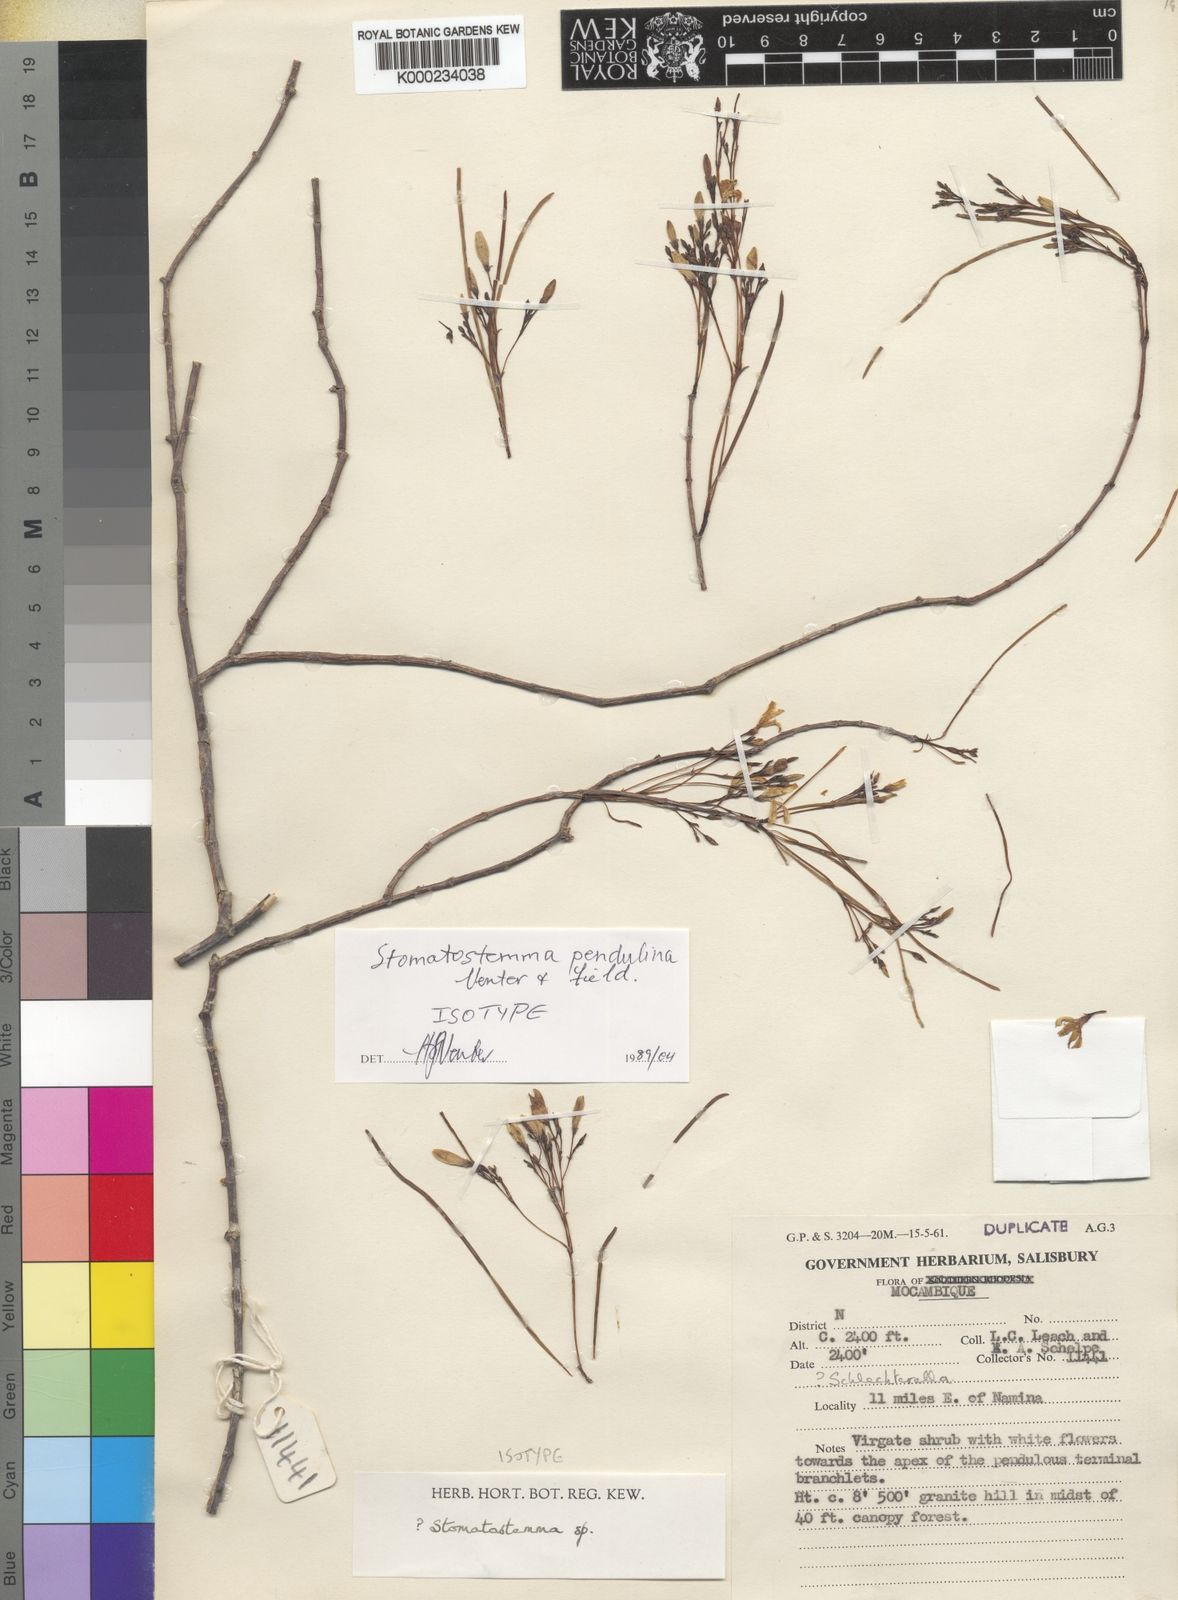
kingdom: Plantae
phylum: Tracheophyta
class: Magnoliopsida
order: Gentianales
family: Apocynaceae
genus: Stomatostemma
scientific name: Stomatostemma pendulina
